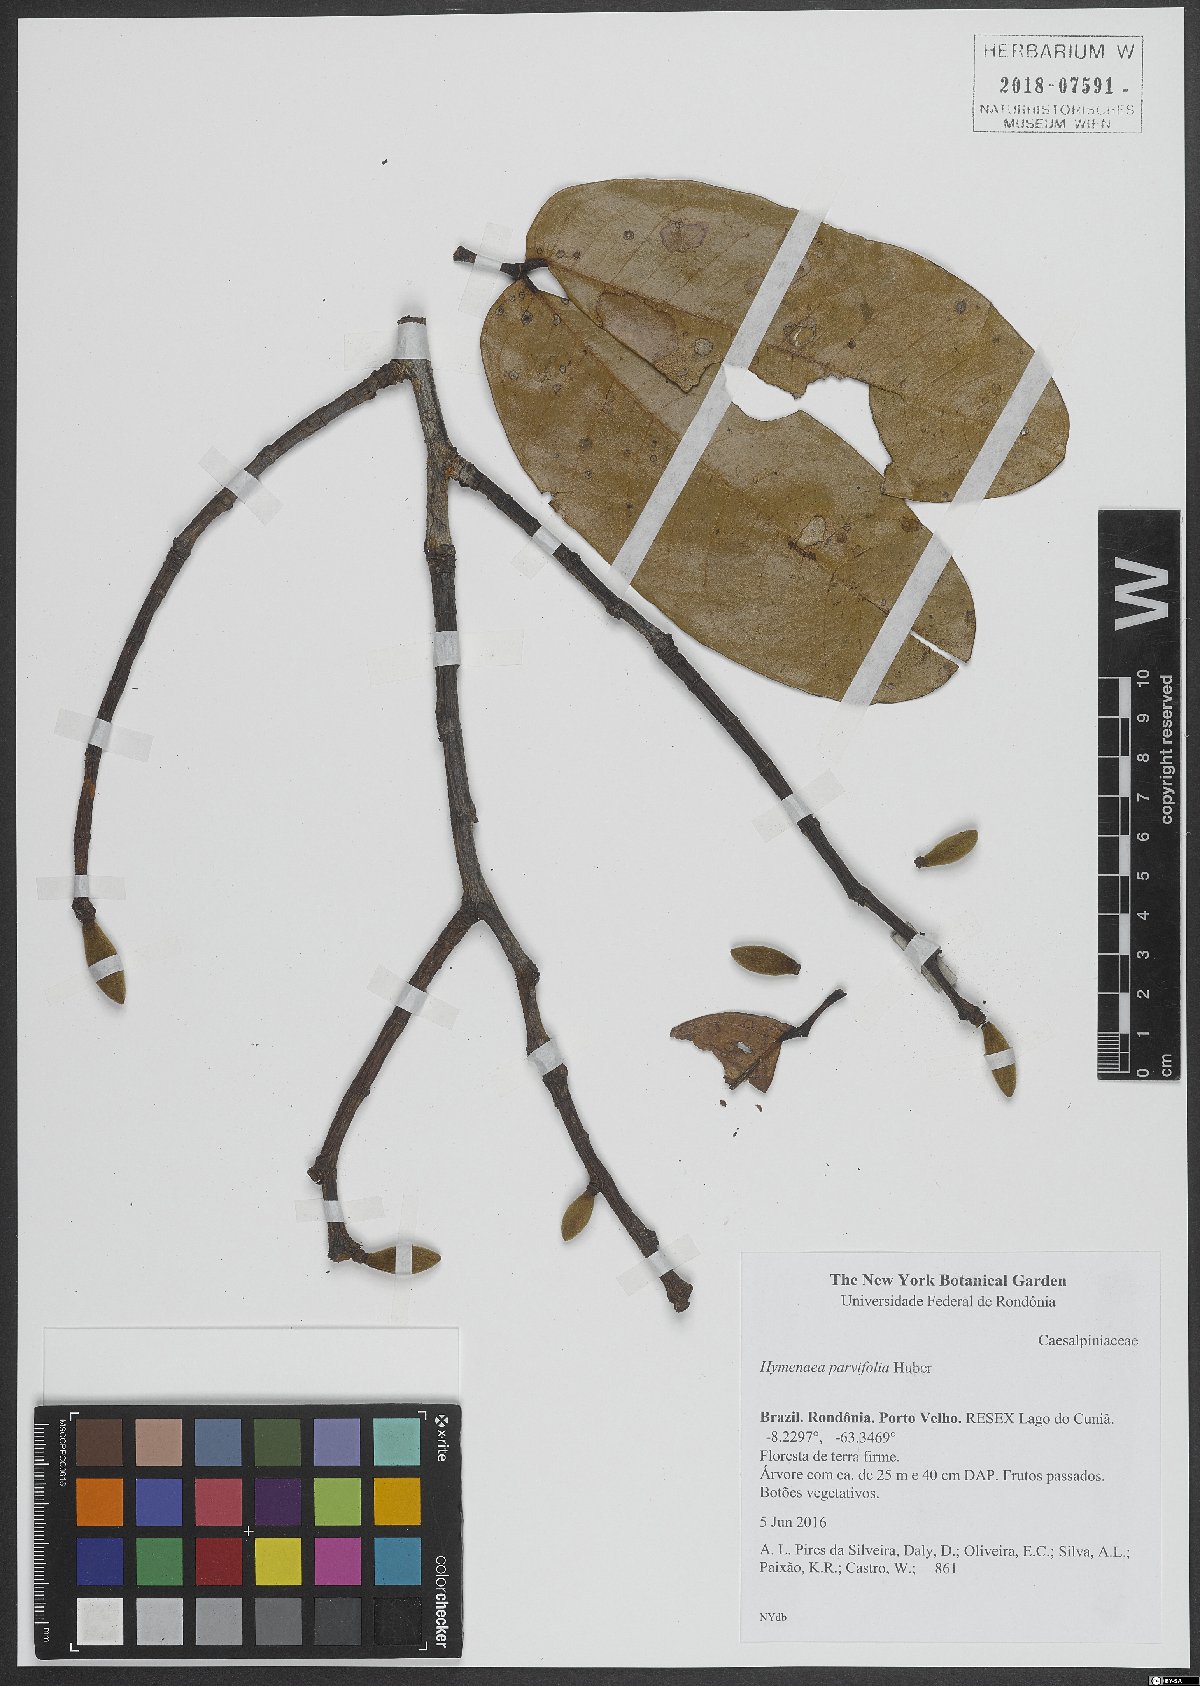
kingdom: Plantae
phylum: Tracheophyta
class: Magnoliopsida
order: Fabales
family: Fabaceae
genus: Hymenaea
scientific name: Hymenaea parvifolia
